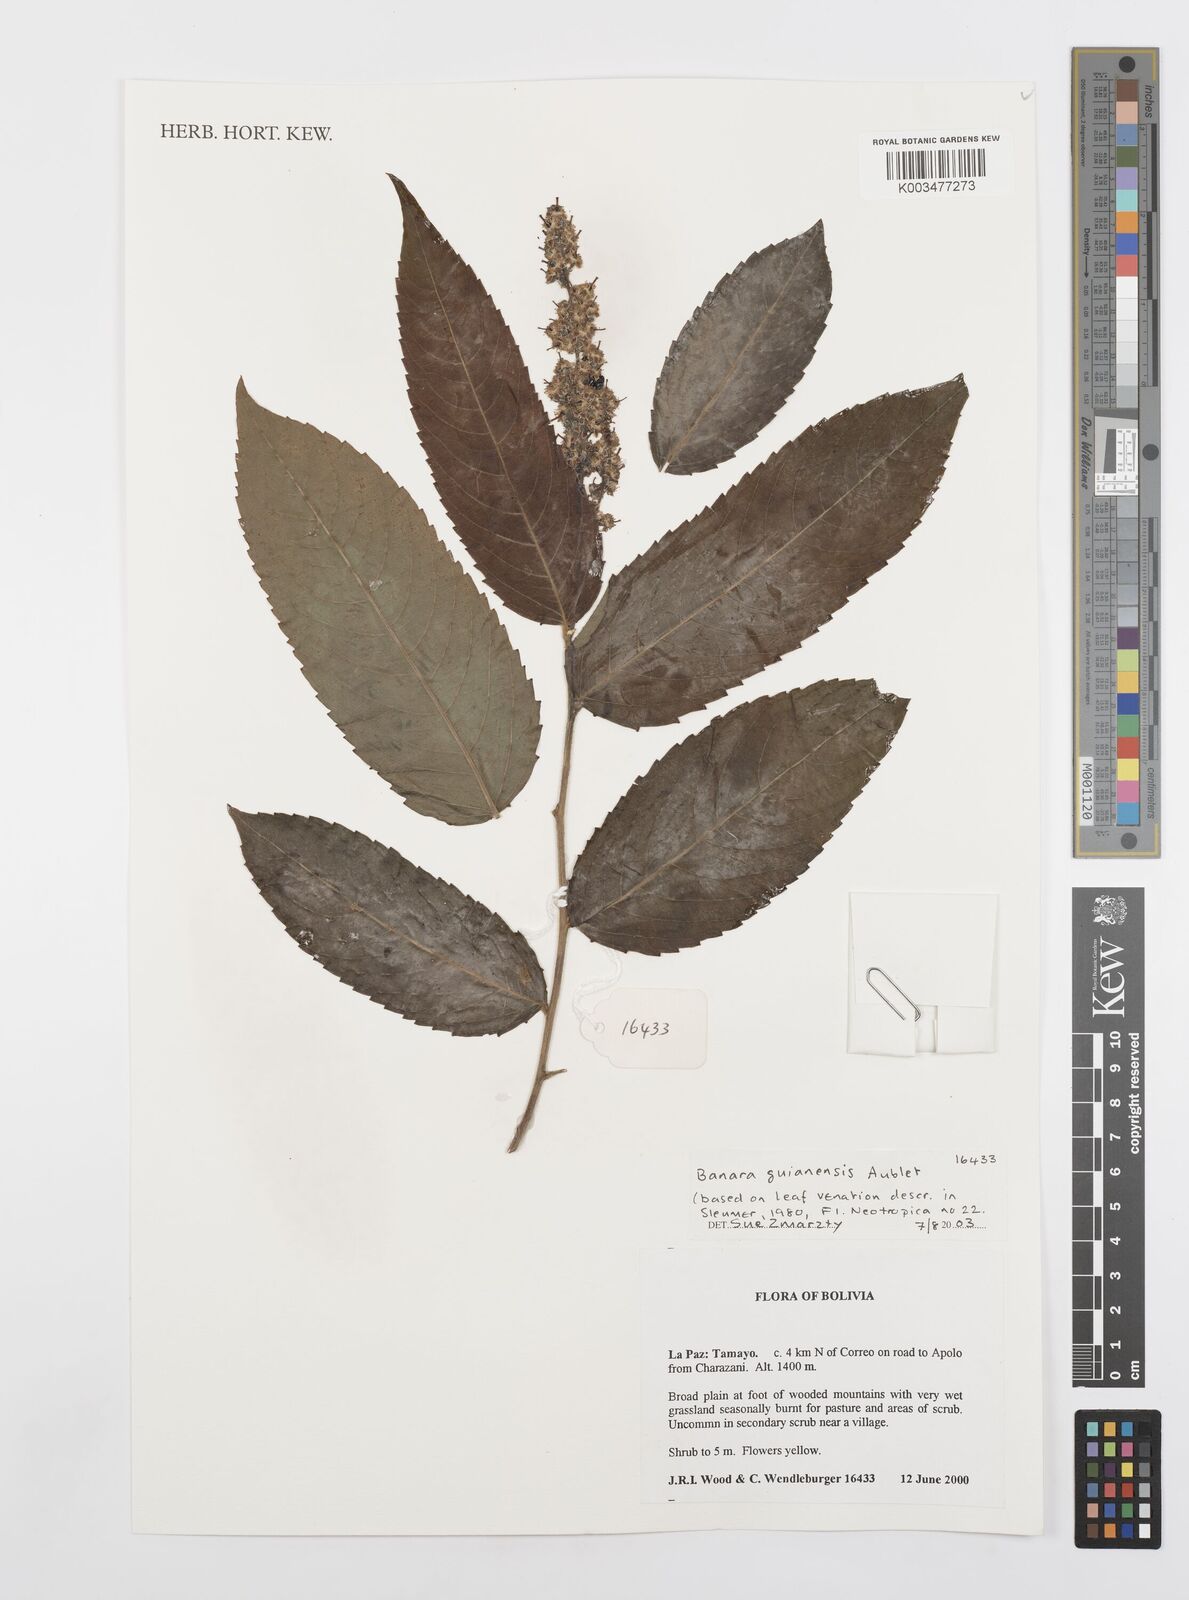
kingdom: Plantae
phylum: Tracheophyta
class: Magnoliopsida
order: Malpighiales
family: Salicaceae
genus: Banara
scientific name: Banara guianensis
